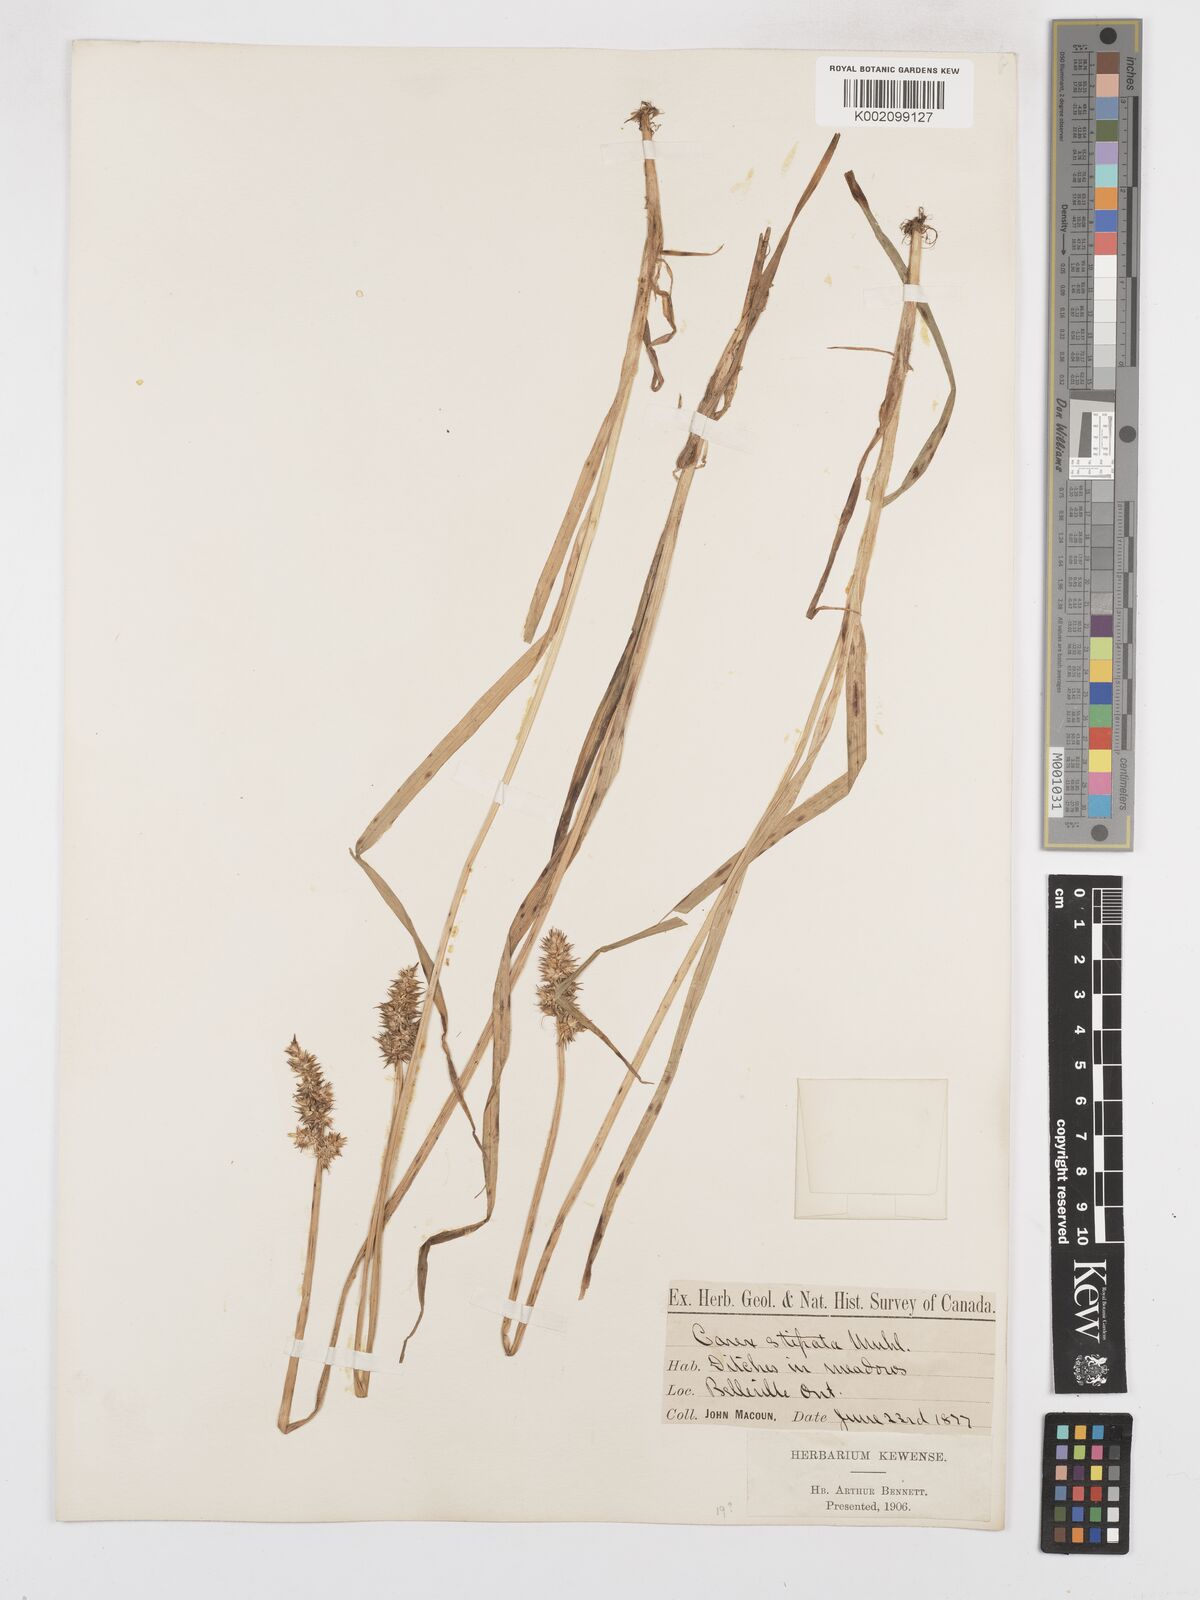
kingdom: Plantae
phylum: Tracheophyta
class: Liliopsida
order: Poales
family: Cyperaceae
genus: Carex
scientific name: Carex stipata
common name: Awl-fruited sedge
